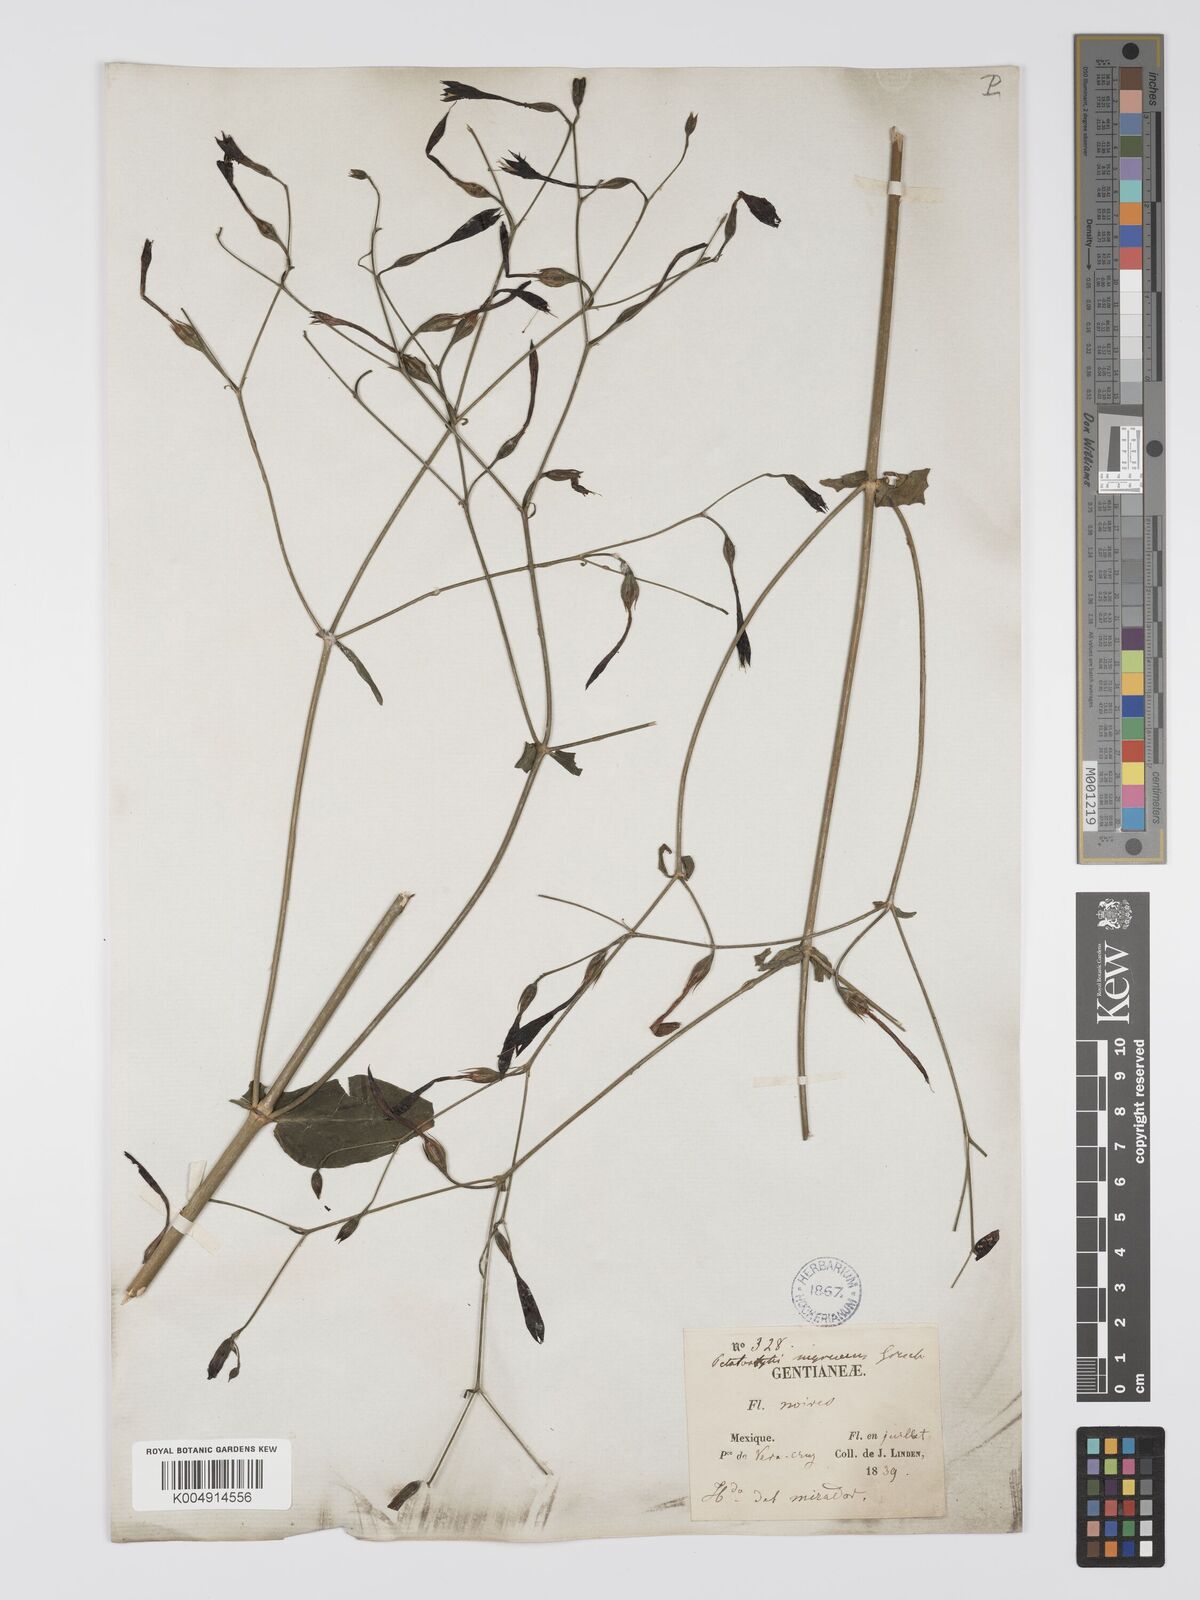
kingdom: Plantae
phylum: Tracheophyta
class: Magnoliopsida
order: Gentianales
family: Gentianaceae
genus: Lisianthus
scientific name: Lisianthus nigrescens
